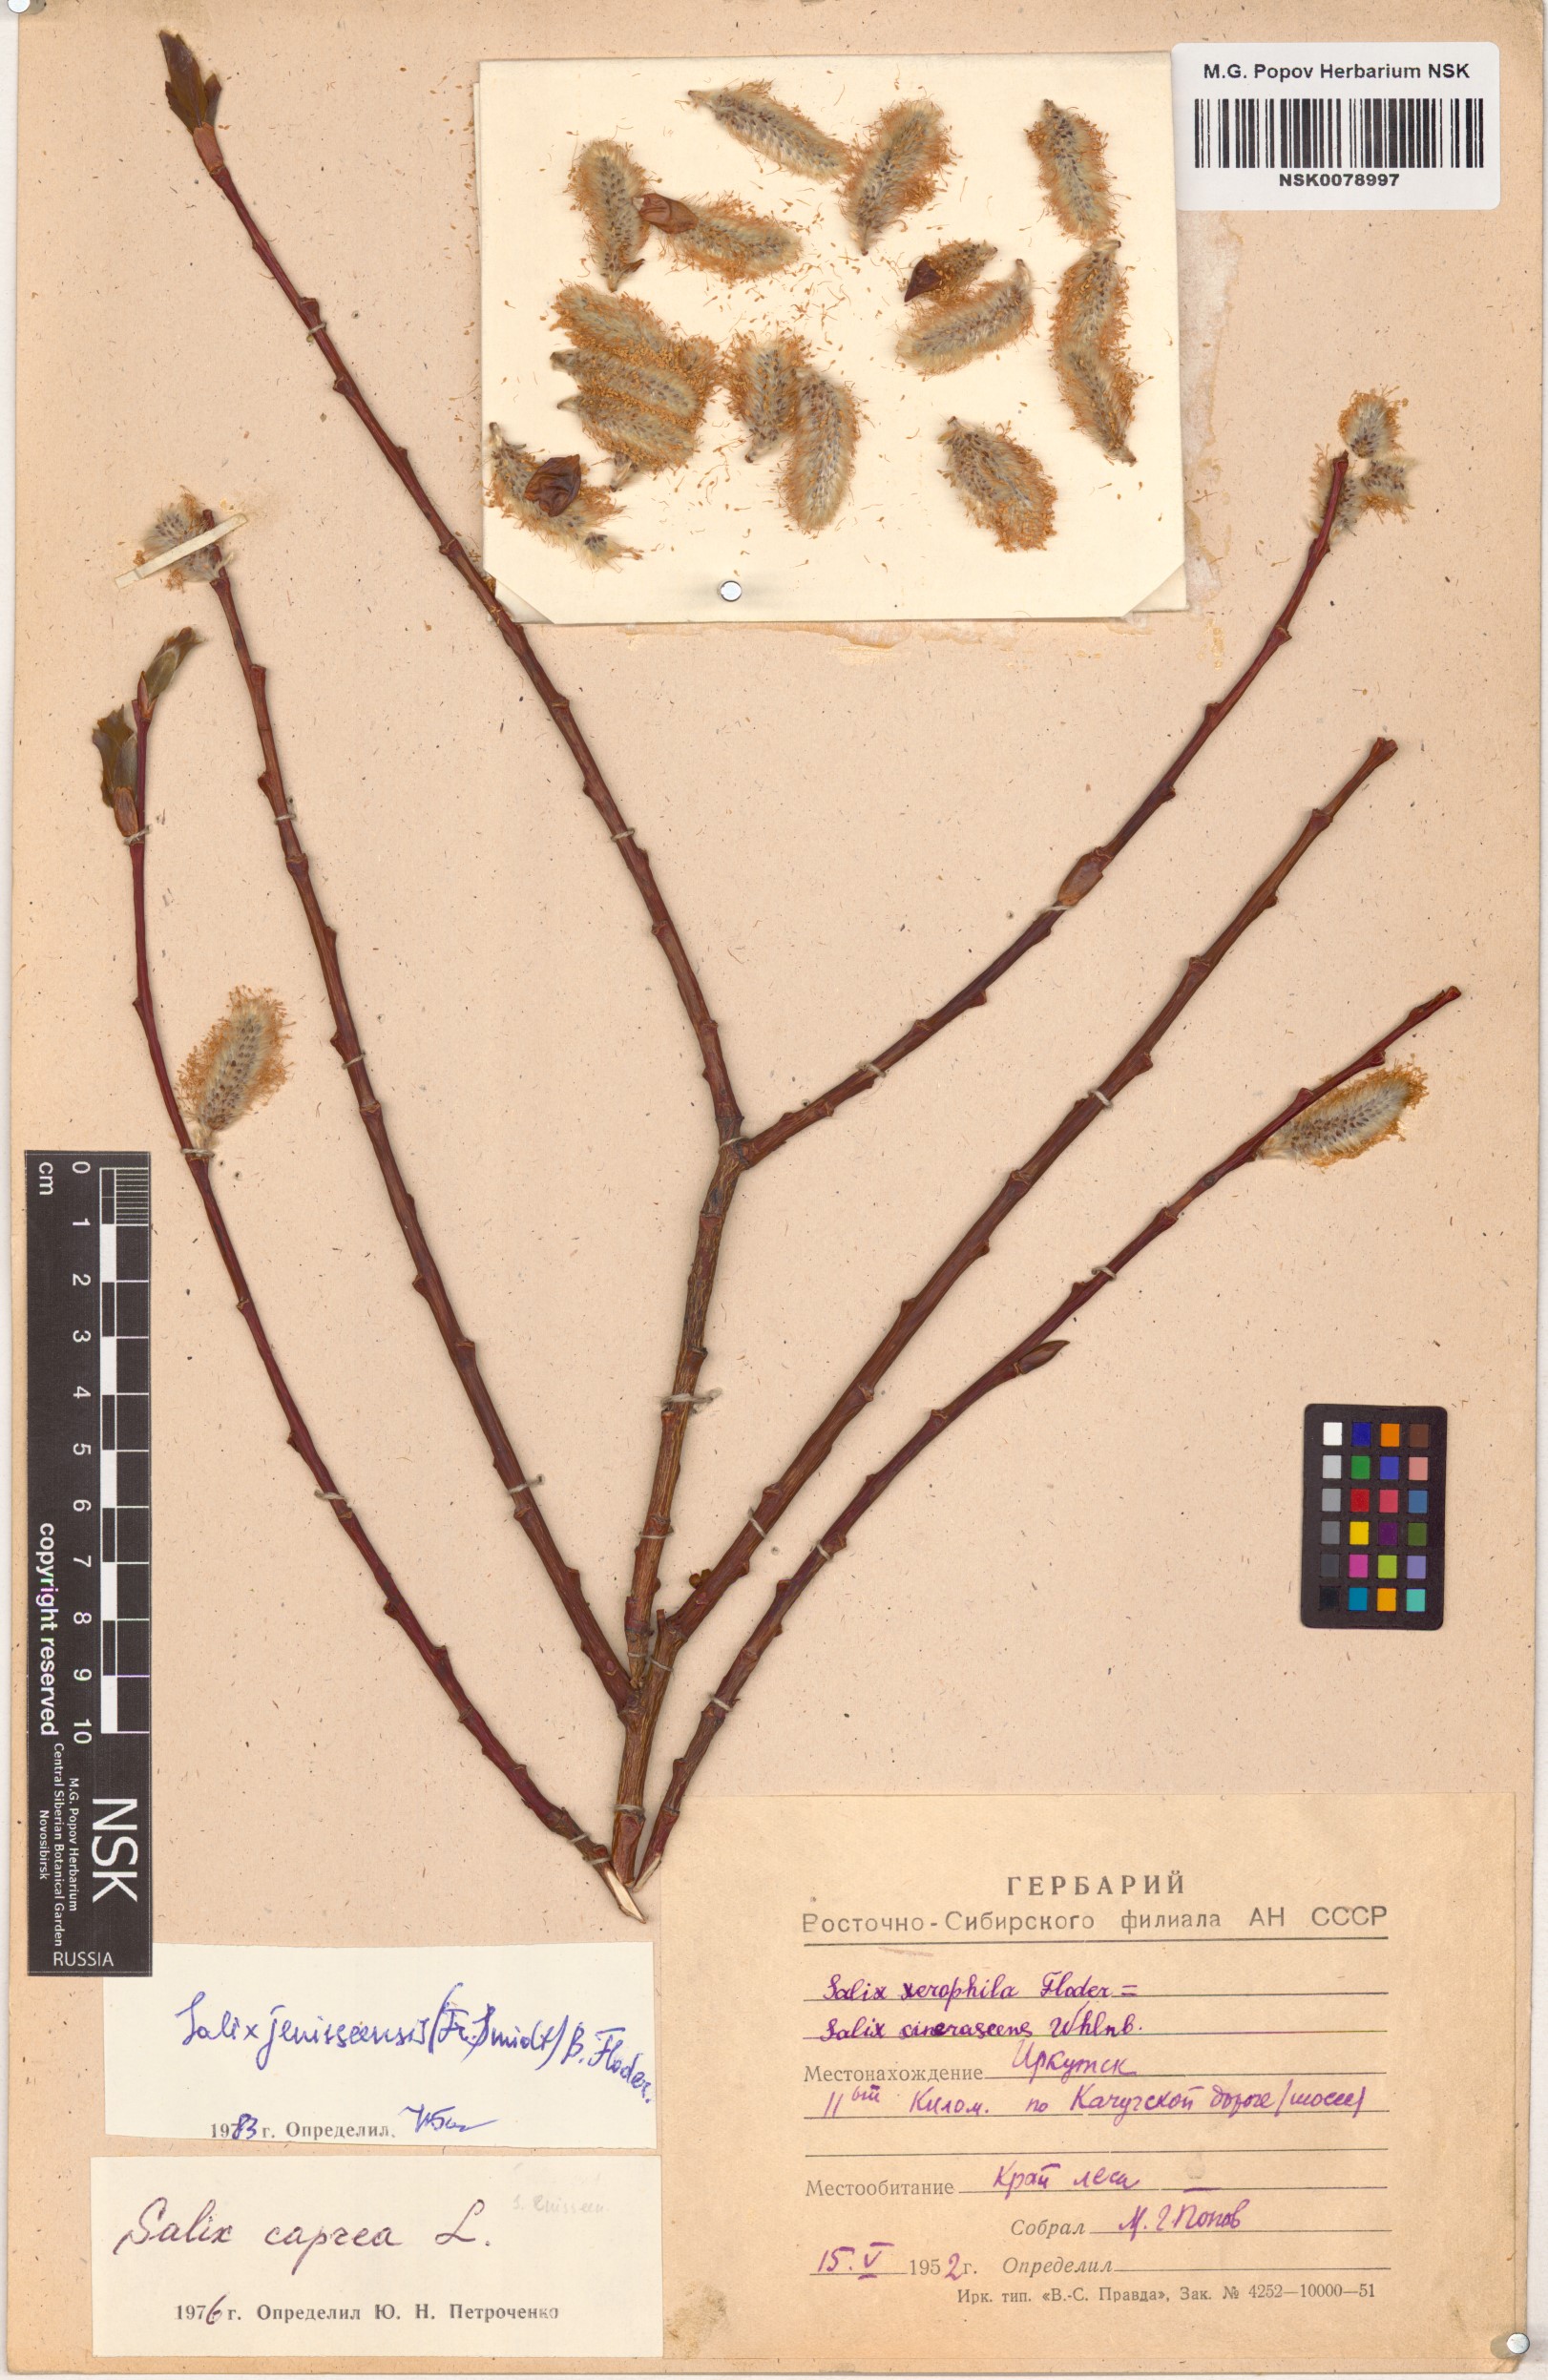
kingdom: Plantae
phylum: Tracheophyta
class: Magnoliopsida
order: Malpighiales
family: Salicaceae
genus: Salix
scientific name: Salix jenisseensis
